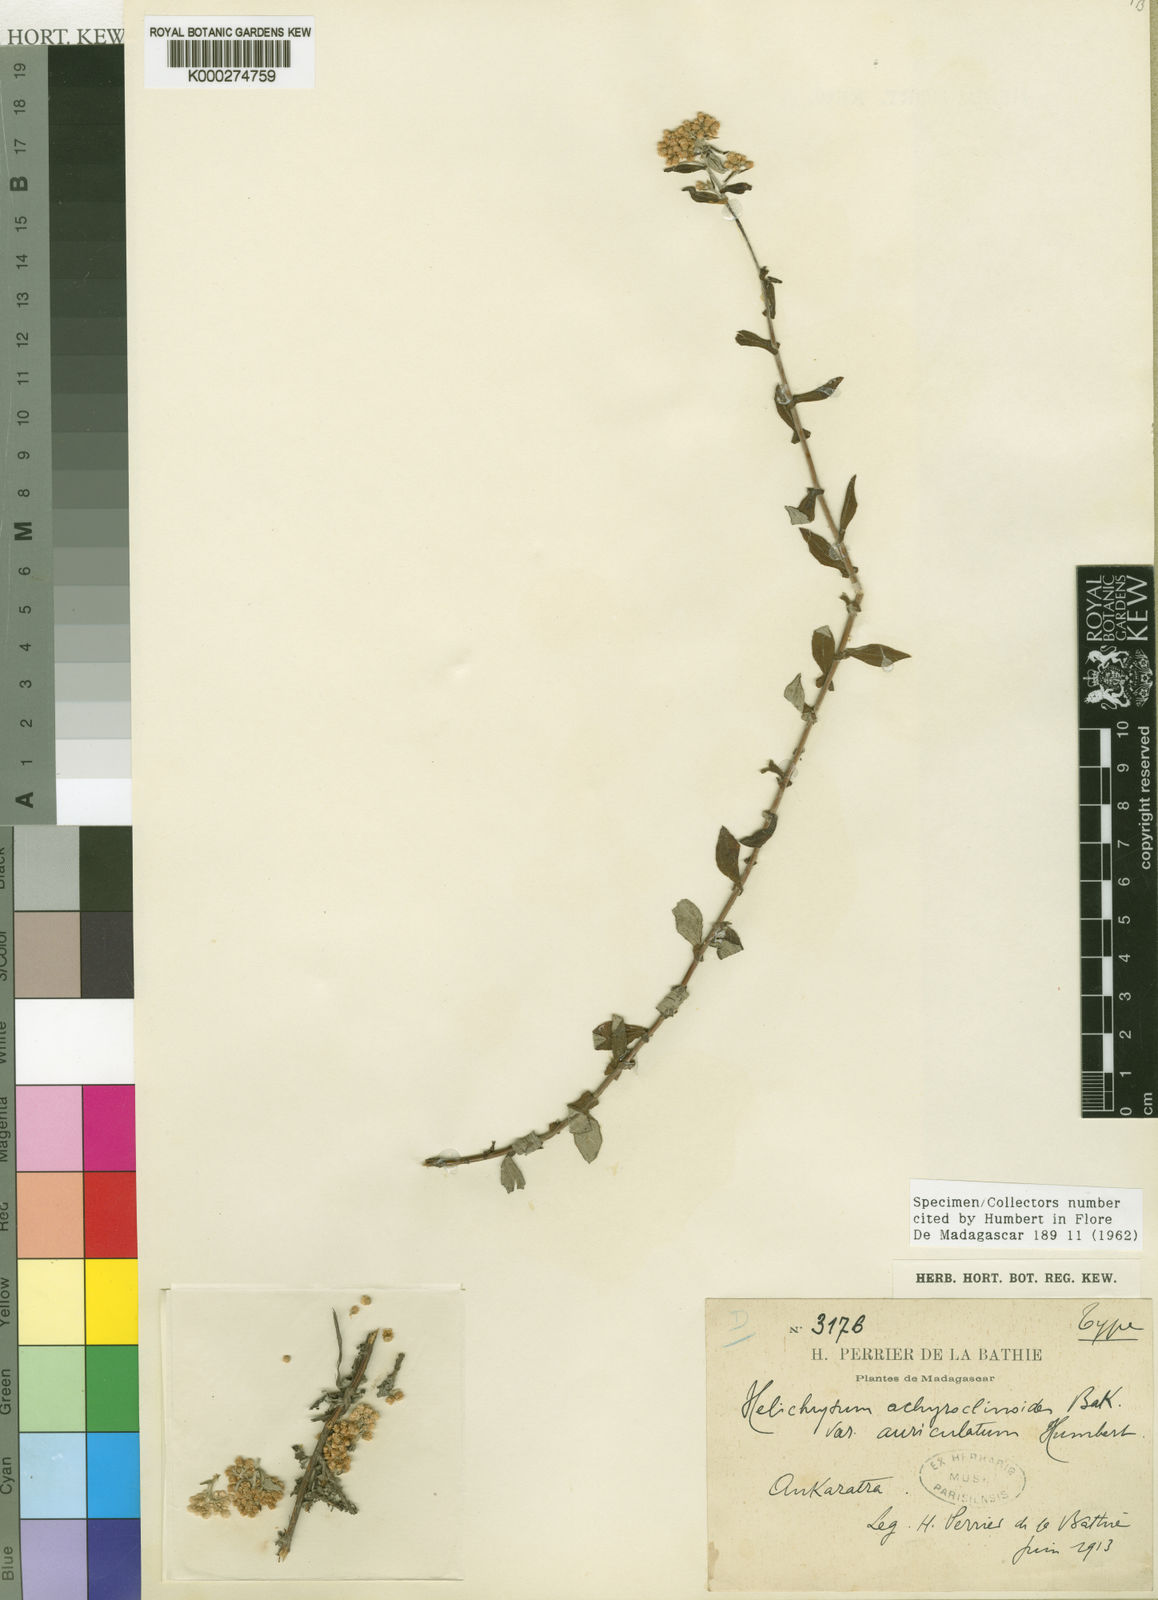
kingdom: Plantae
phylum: Tracheophyta
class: Magnoliopsida
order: Asterales
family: Asteraceae
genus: Helichrysum
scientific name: Helichrysum
